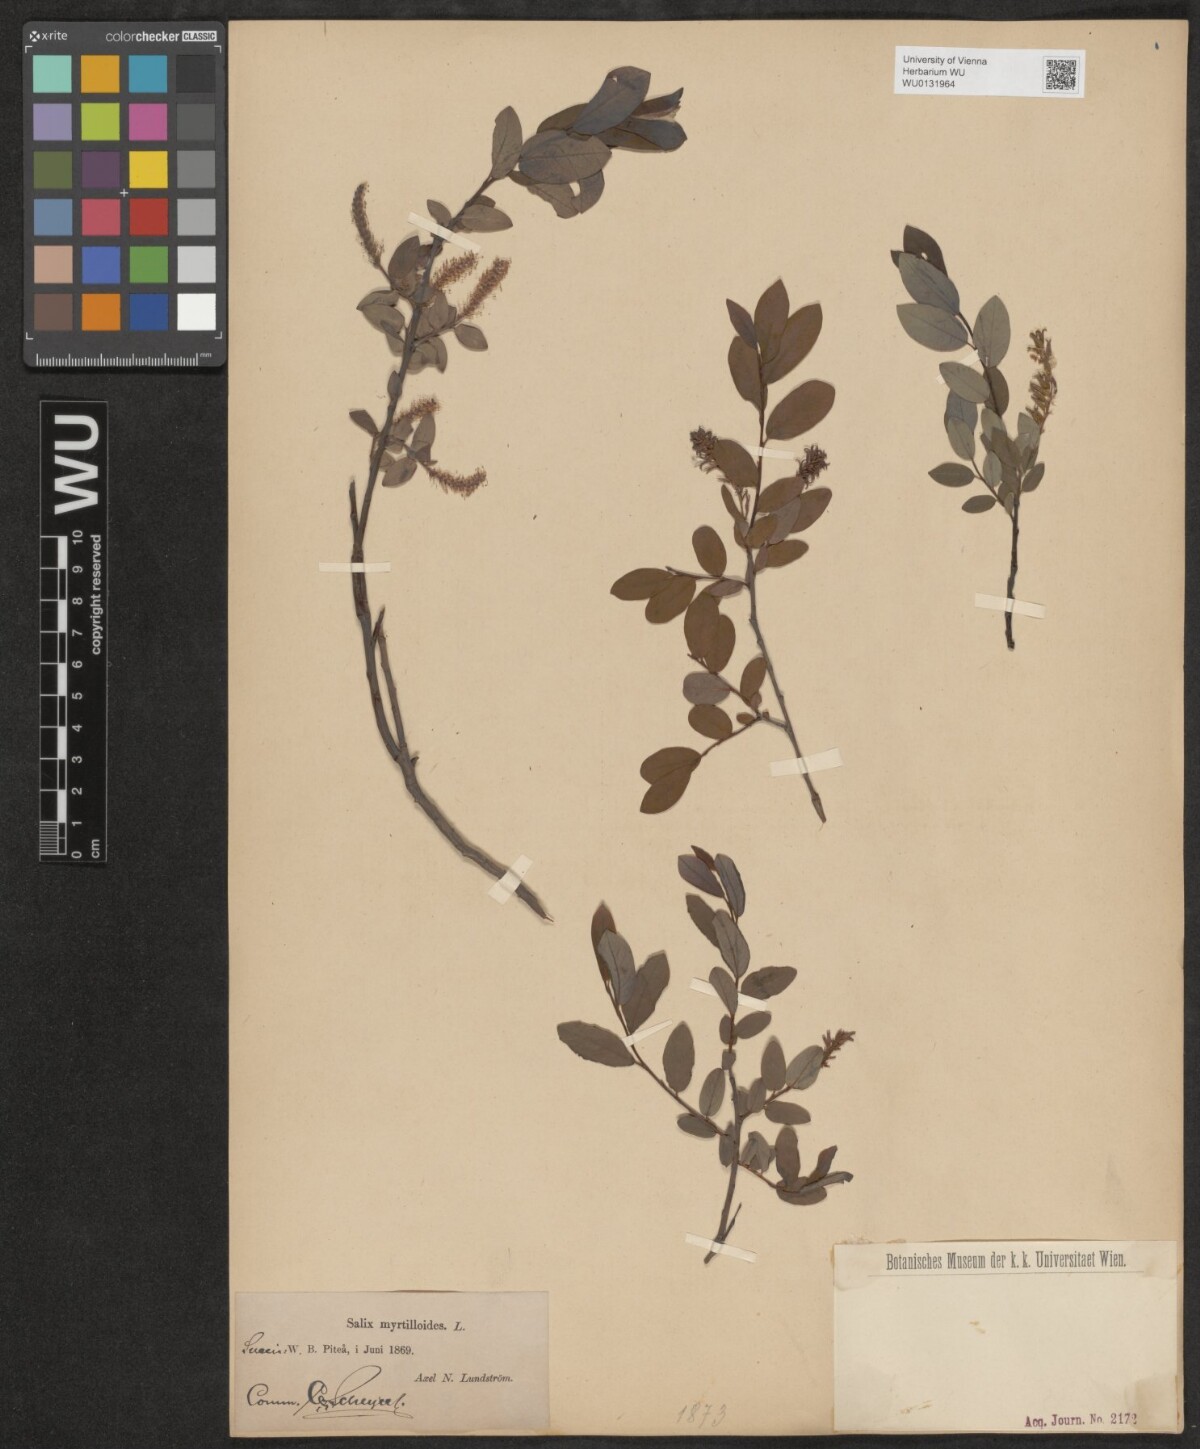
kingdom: Plantae
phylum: Tracheophyta
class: Magnoliopsida
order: Malpighiales
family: Salicaceae
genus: Salix
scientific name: Salix myrtilloides
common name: Myrtle-leaved willow
